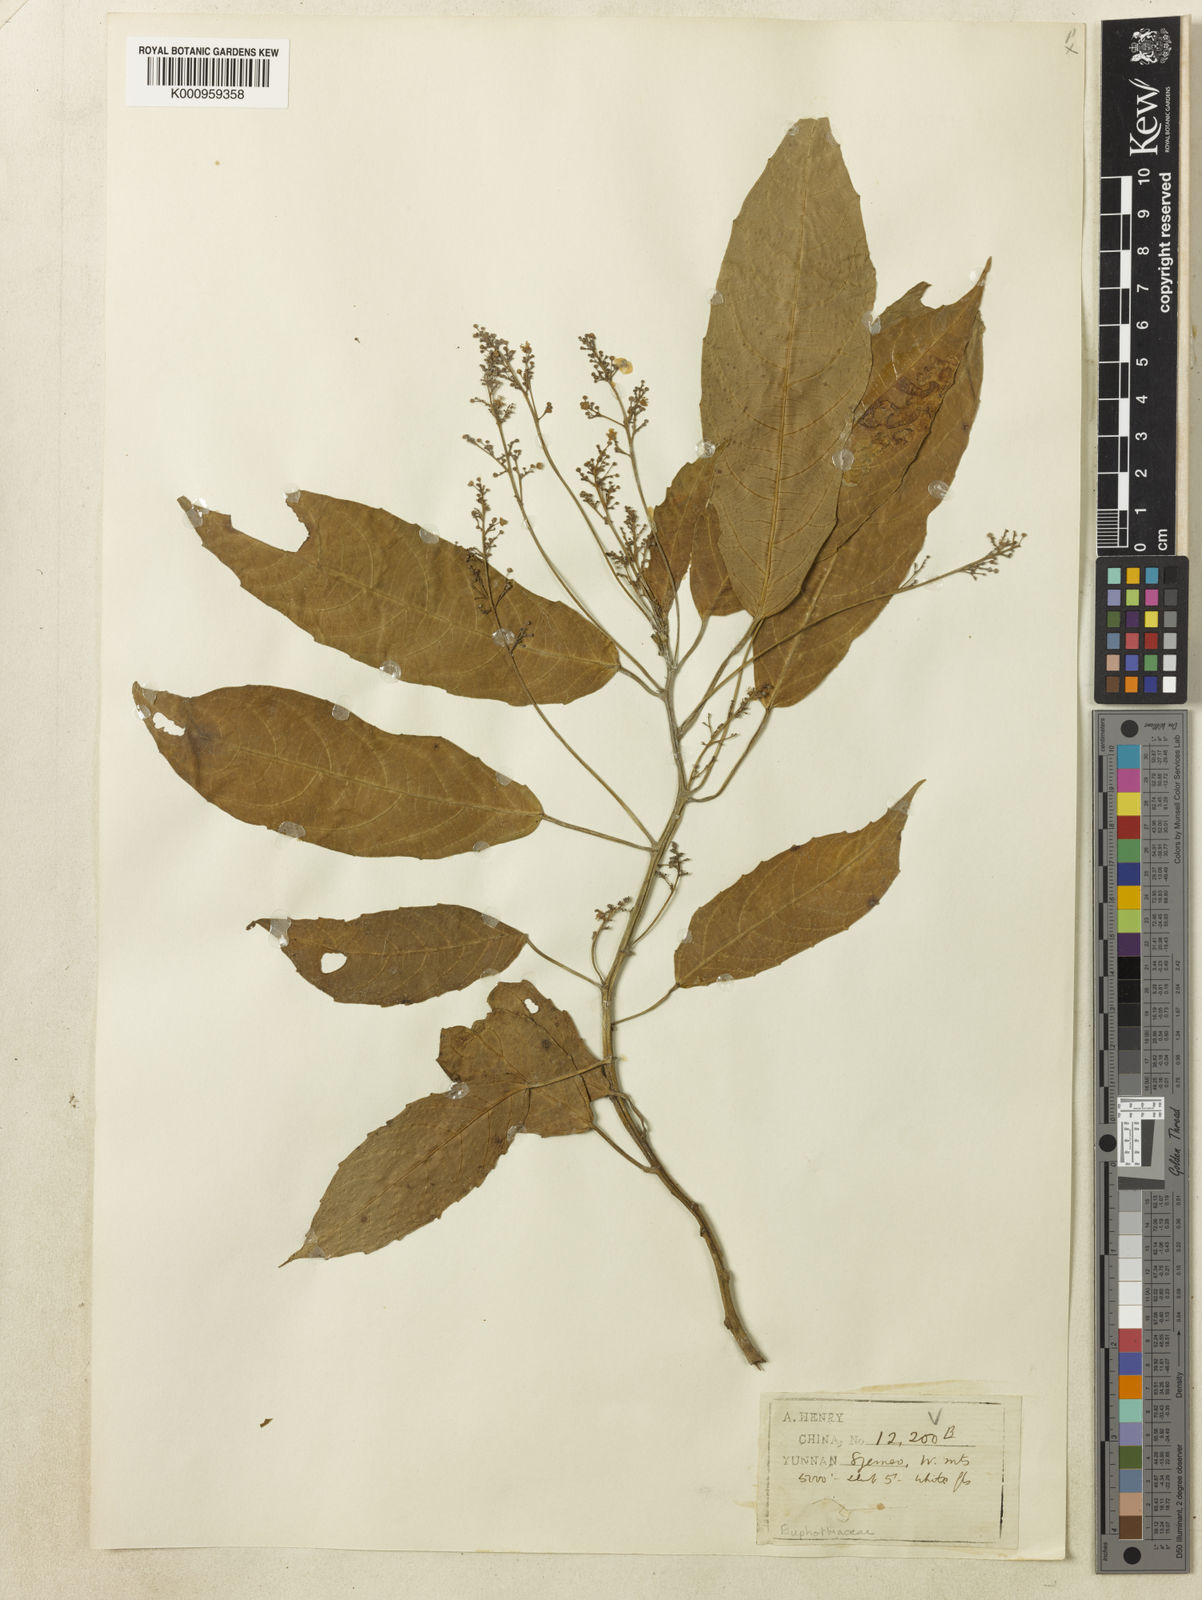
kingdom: Plantae
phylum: Tracheophyta
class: Magnoliopsida
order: Malpighiales
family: Euphorbiaceae
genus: Baliospermum
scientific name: Baliospermum calycinum
